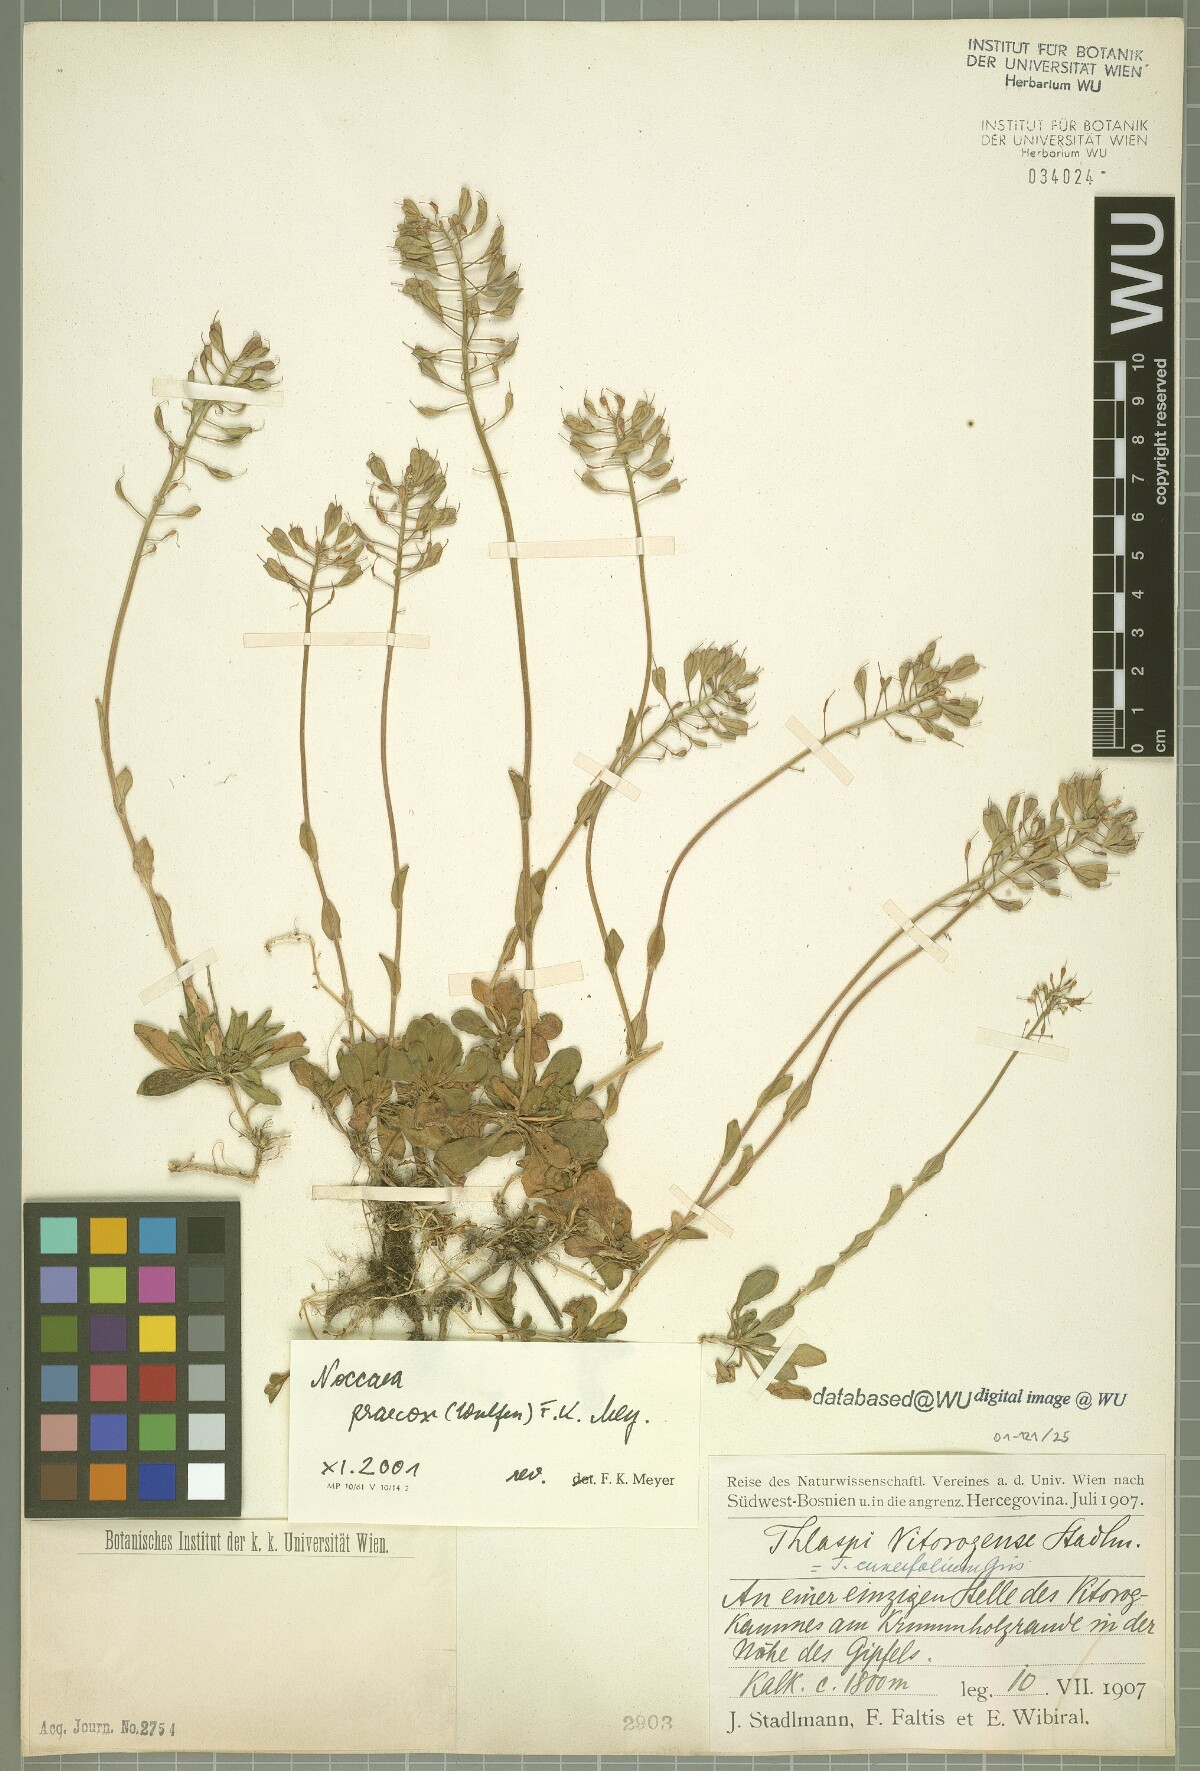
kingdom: Plantae
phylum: Tracheophyta
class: Magnoliopsida
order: Brassicales
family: Brassicaceae
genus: Noccaea
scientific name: Noccaea praecox
